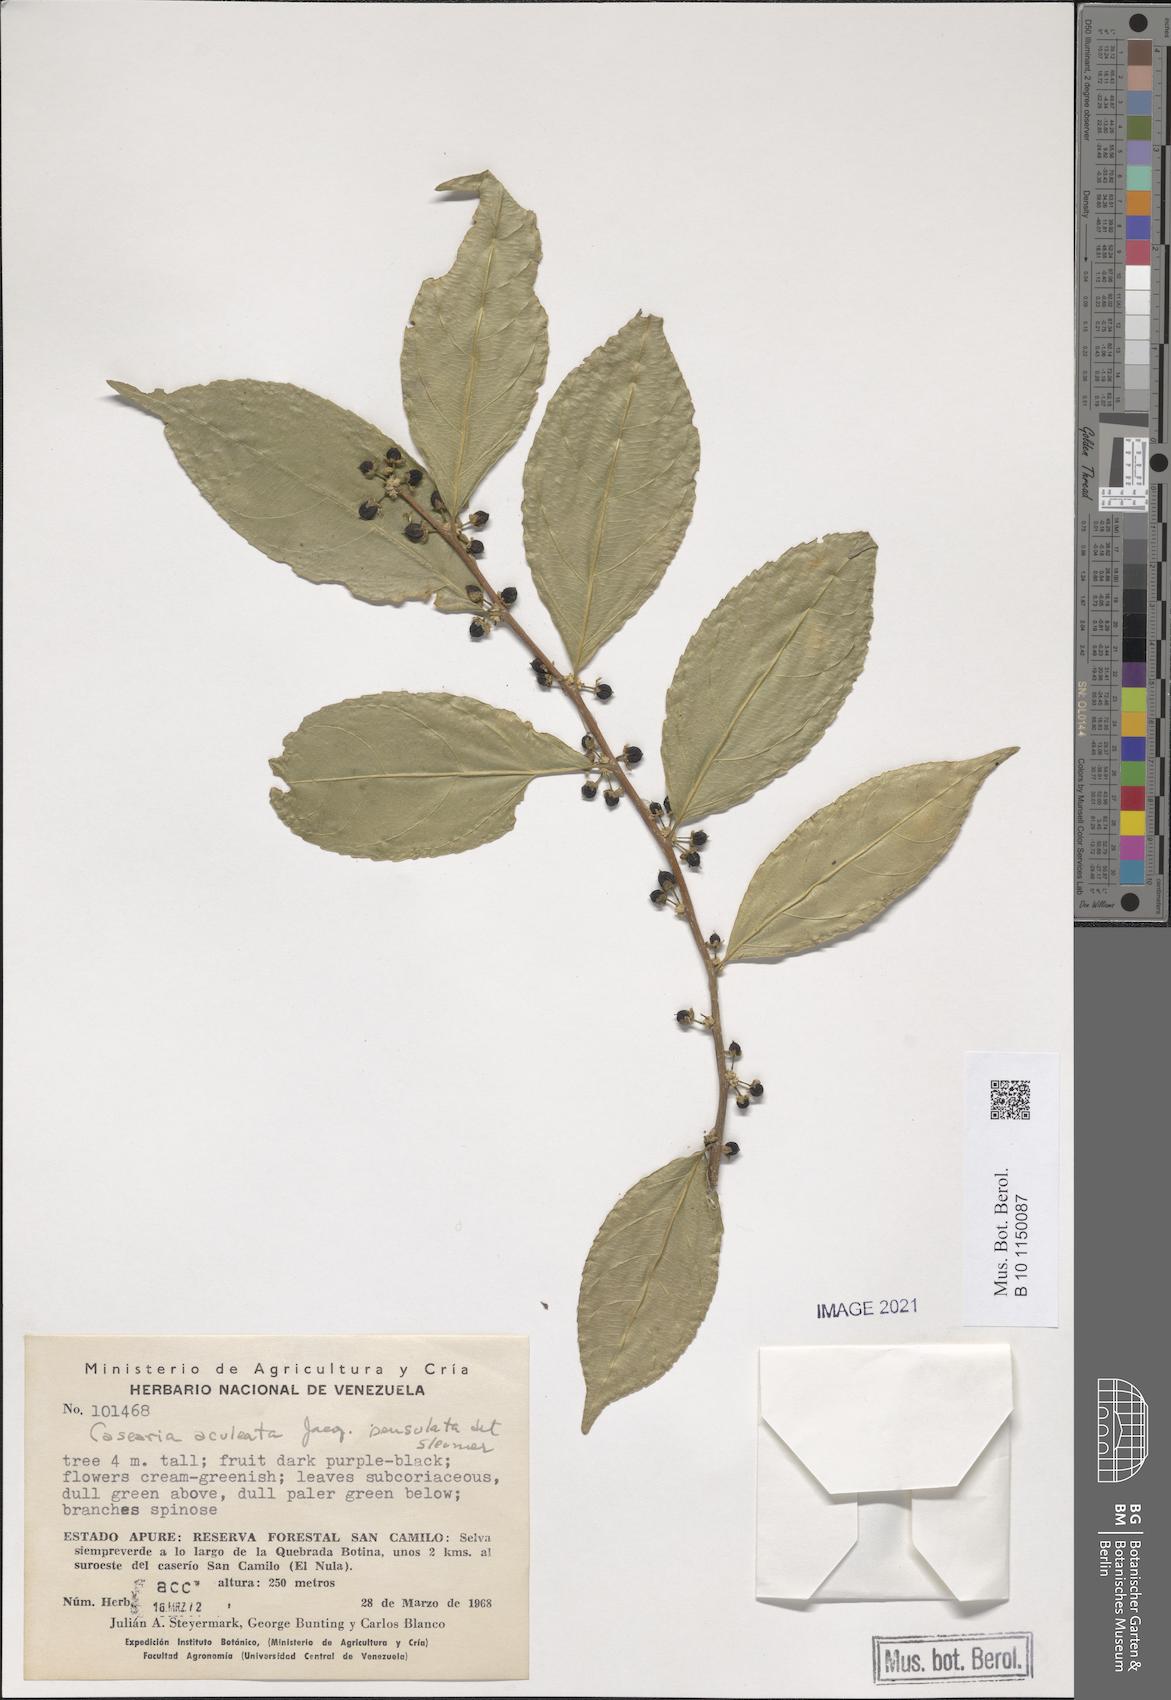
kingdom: Plantae
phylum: Tracheophyta
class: Magnoliopsida
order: Malpighiales
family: Salicaceae
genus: Casearia
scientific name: Casearia aculeata
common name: Cockspur
